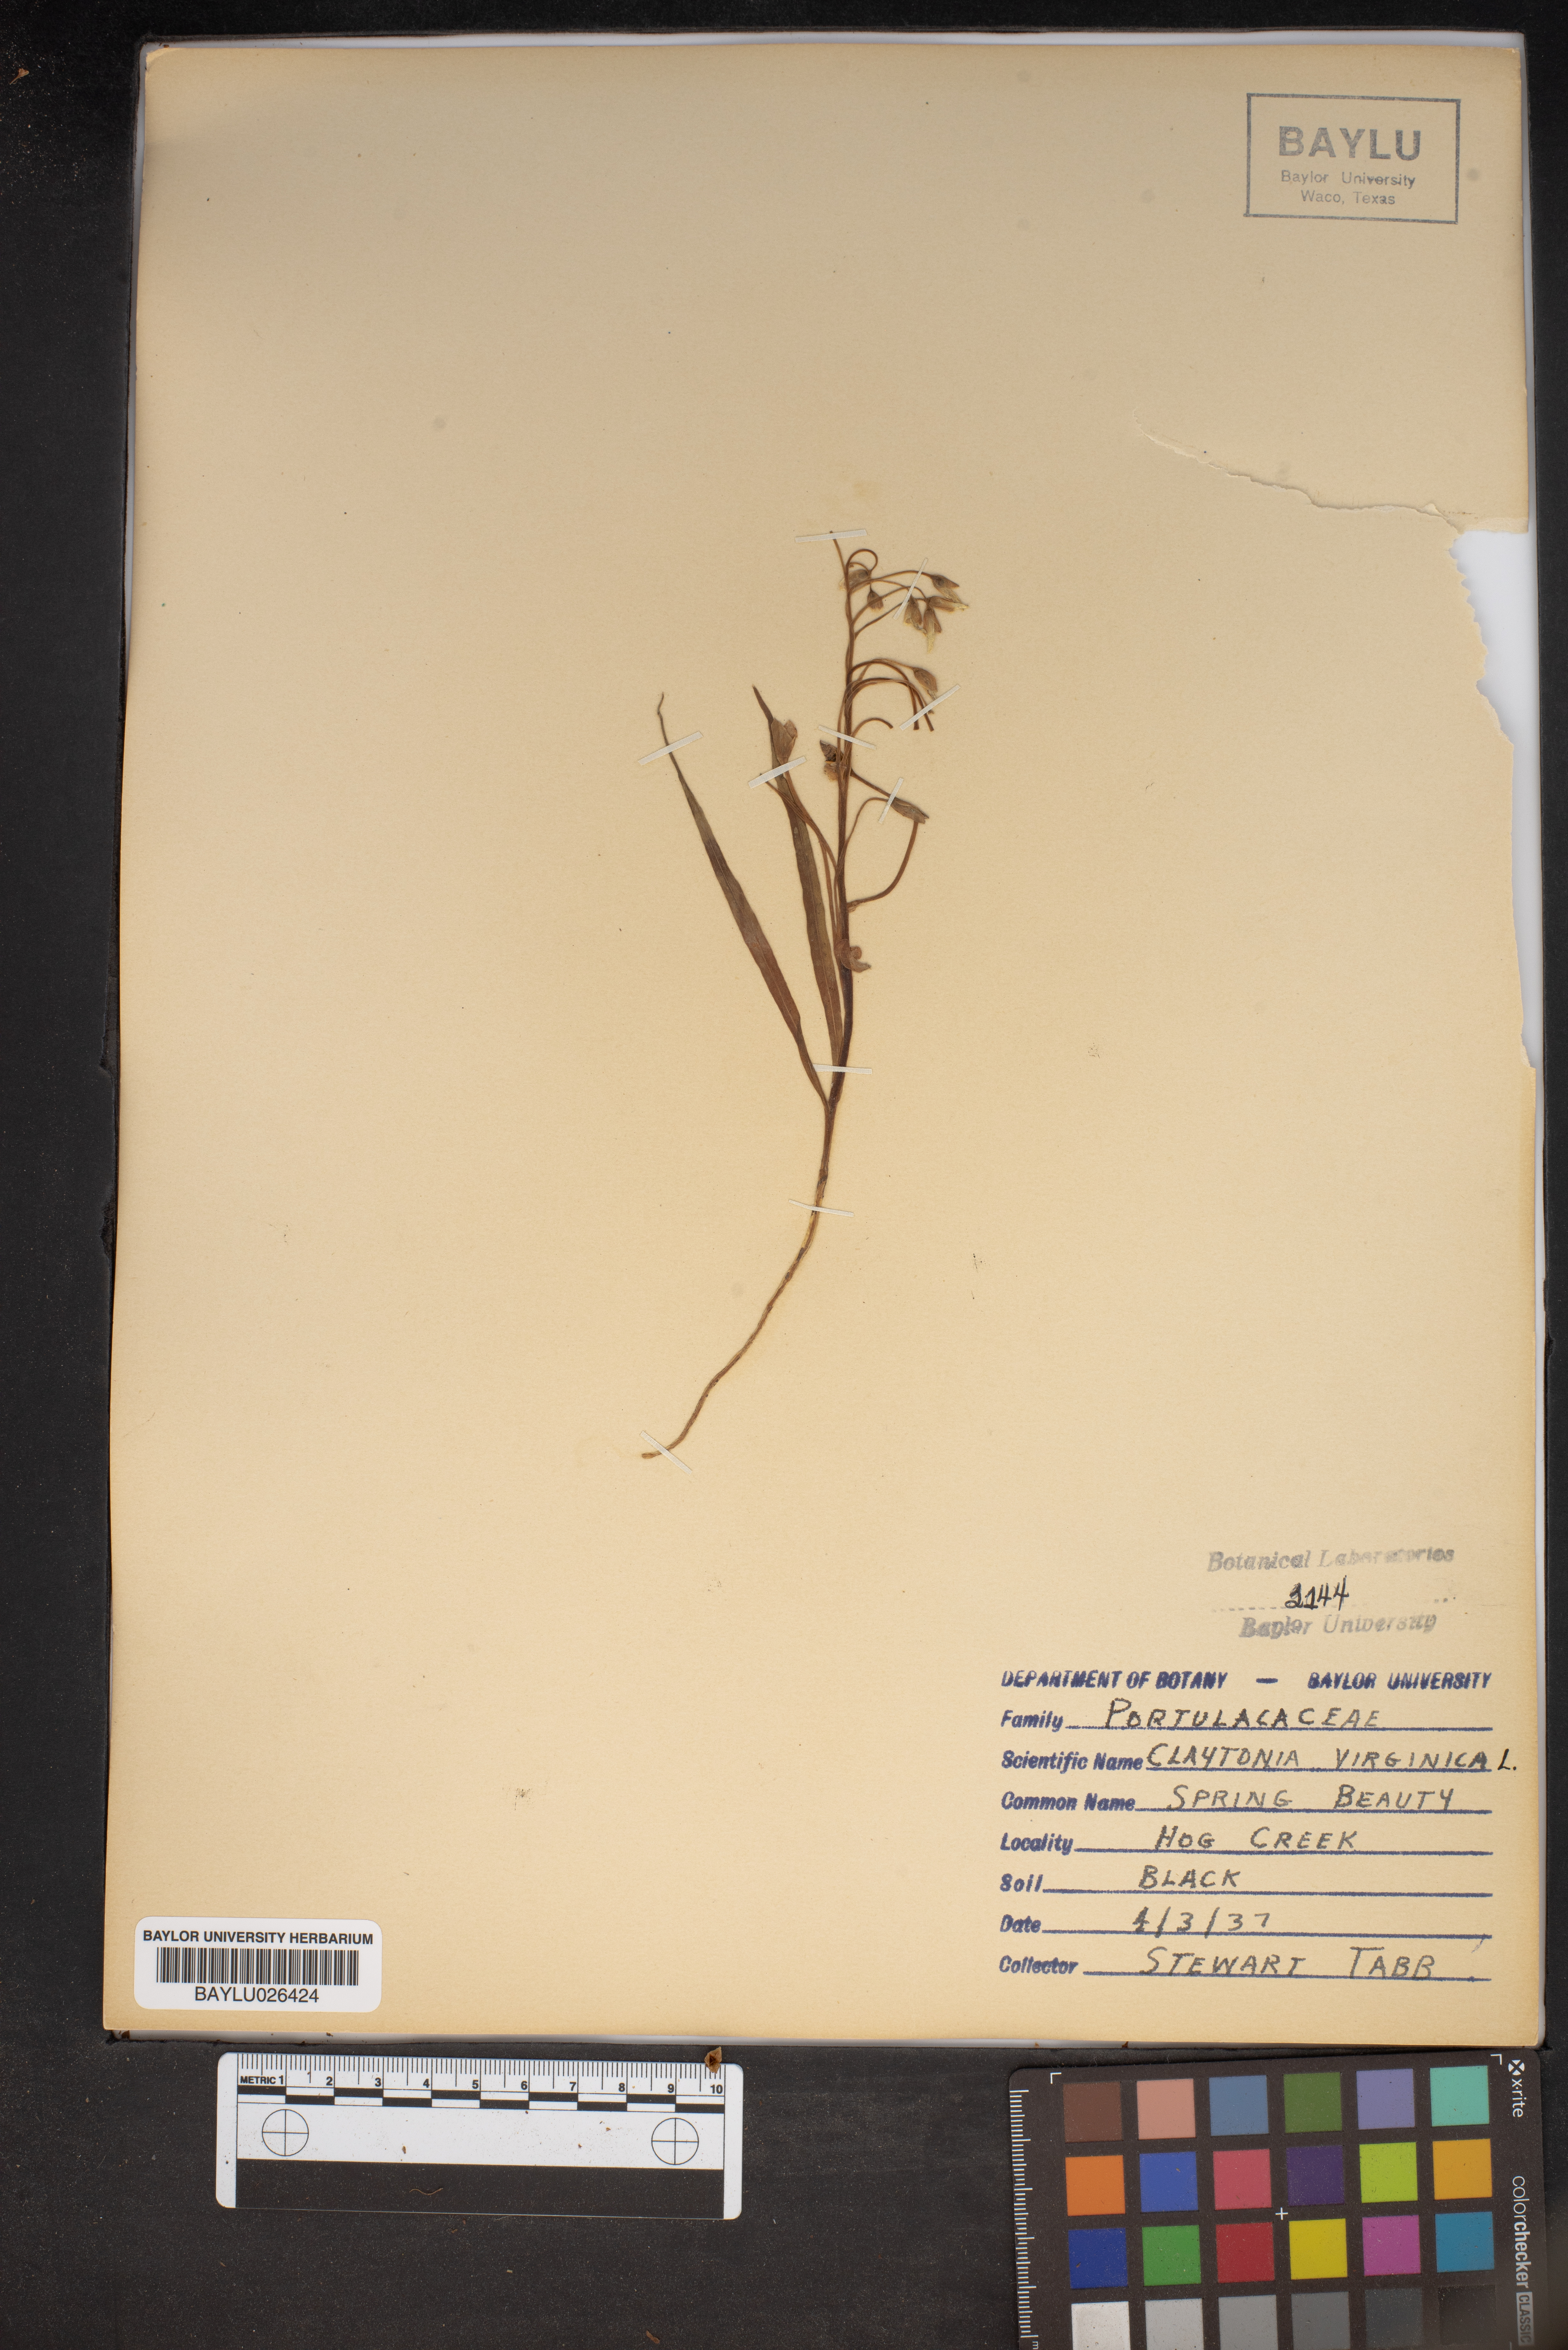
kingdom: Plantae
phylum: Tracheophyta
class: Magnoliopsida
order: Caryophyllales
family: Montiaceae
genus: Claytonia
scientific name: Claytonia virginica
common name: Virginia springbeauty
